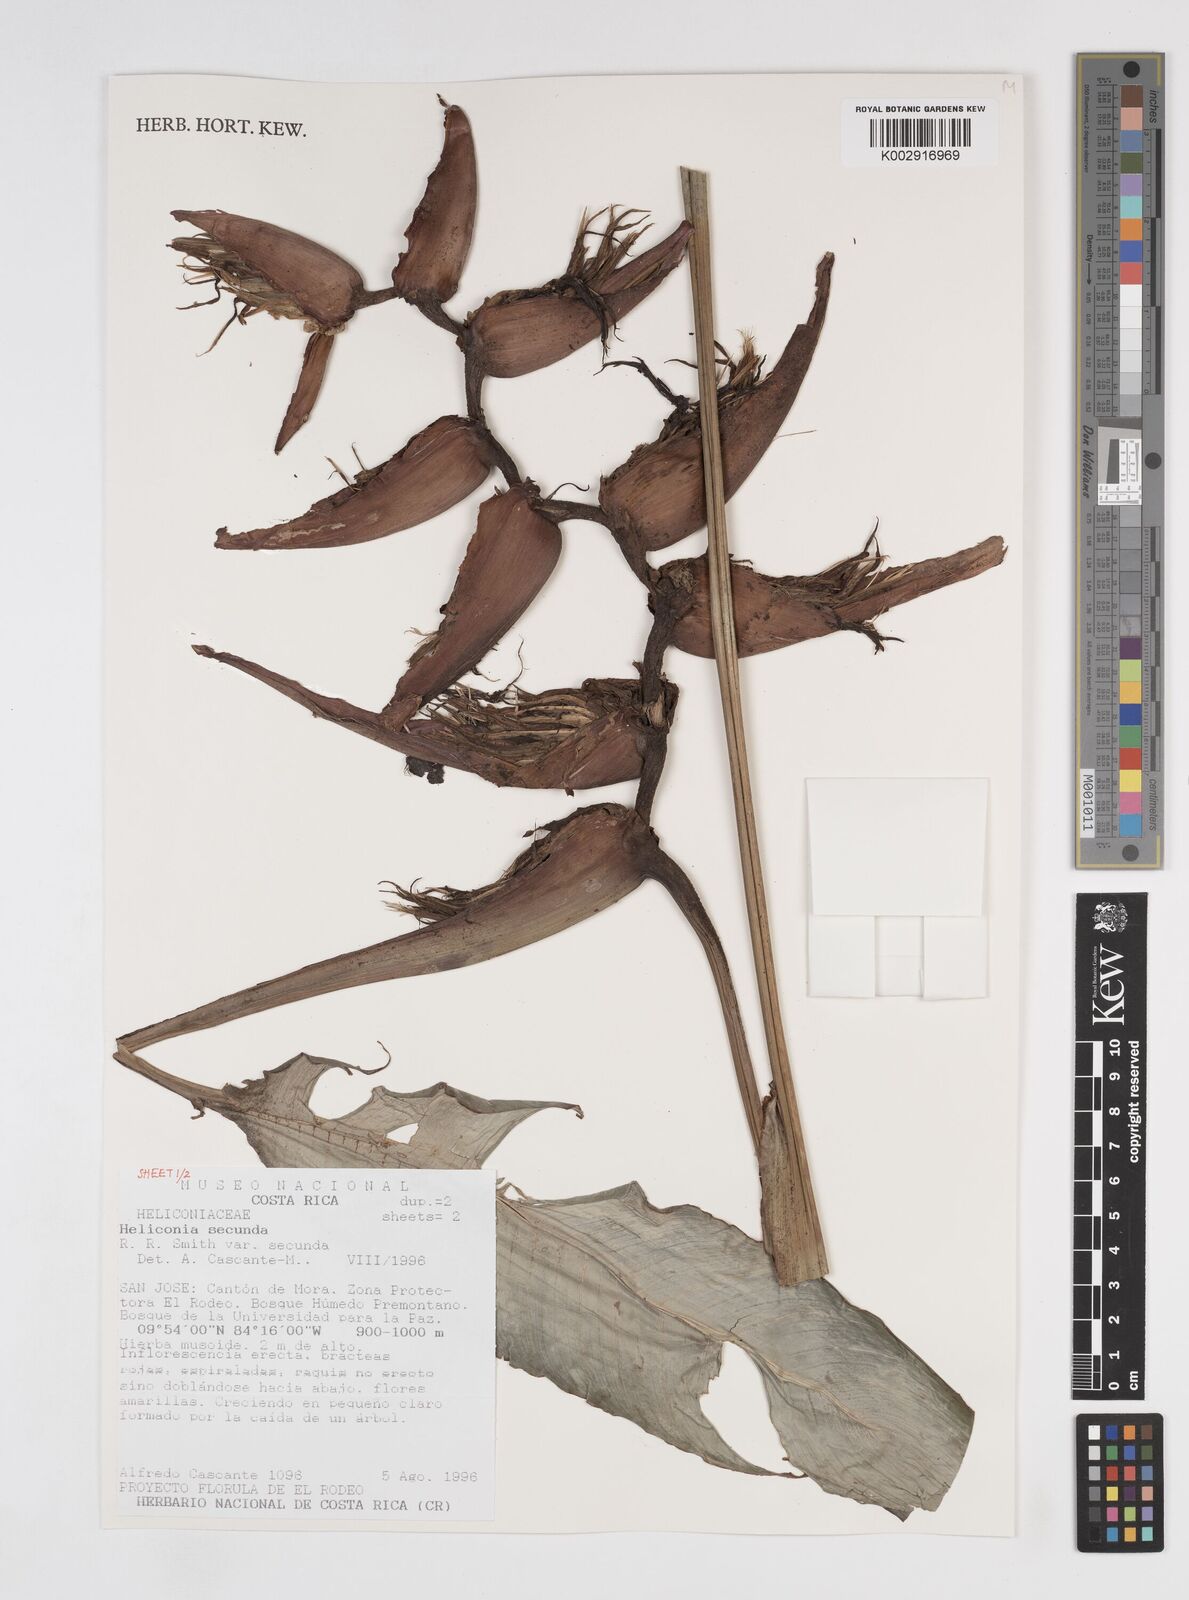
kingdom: Plantae
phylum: Tracheophyta
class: Liliopsida
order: Zingiberales
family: Heliconiaceae
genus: Heliconia
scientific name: Heliconia secunda
